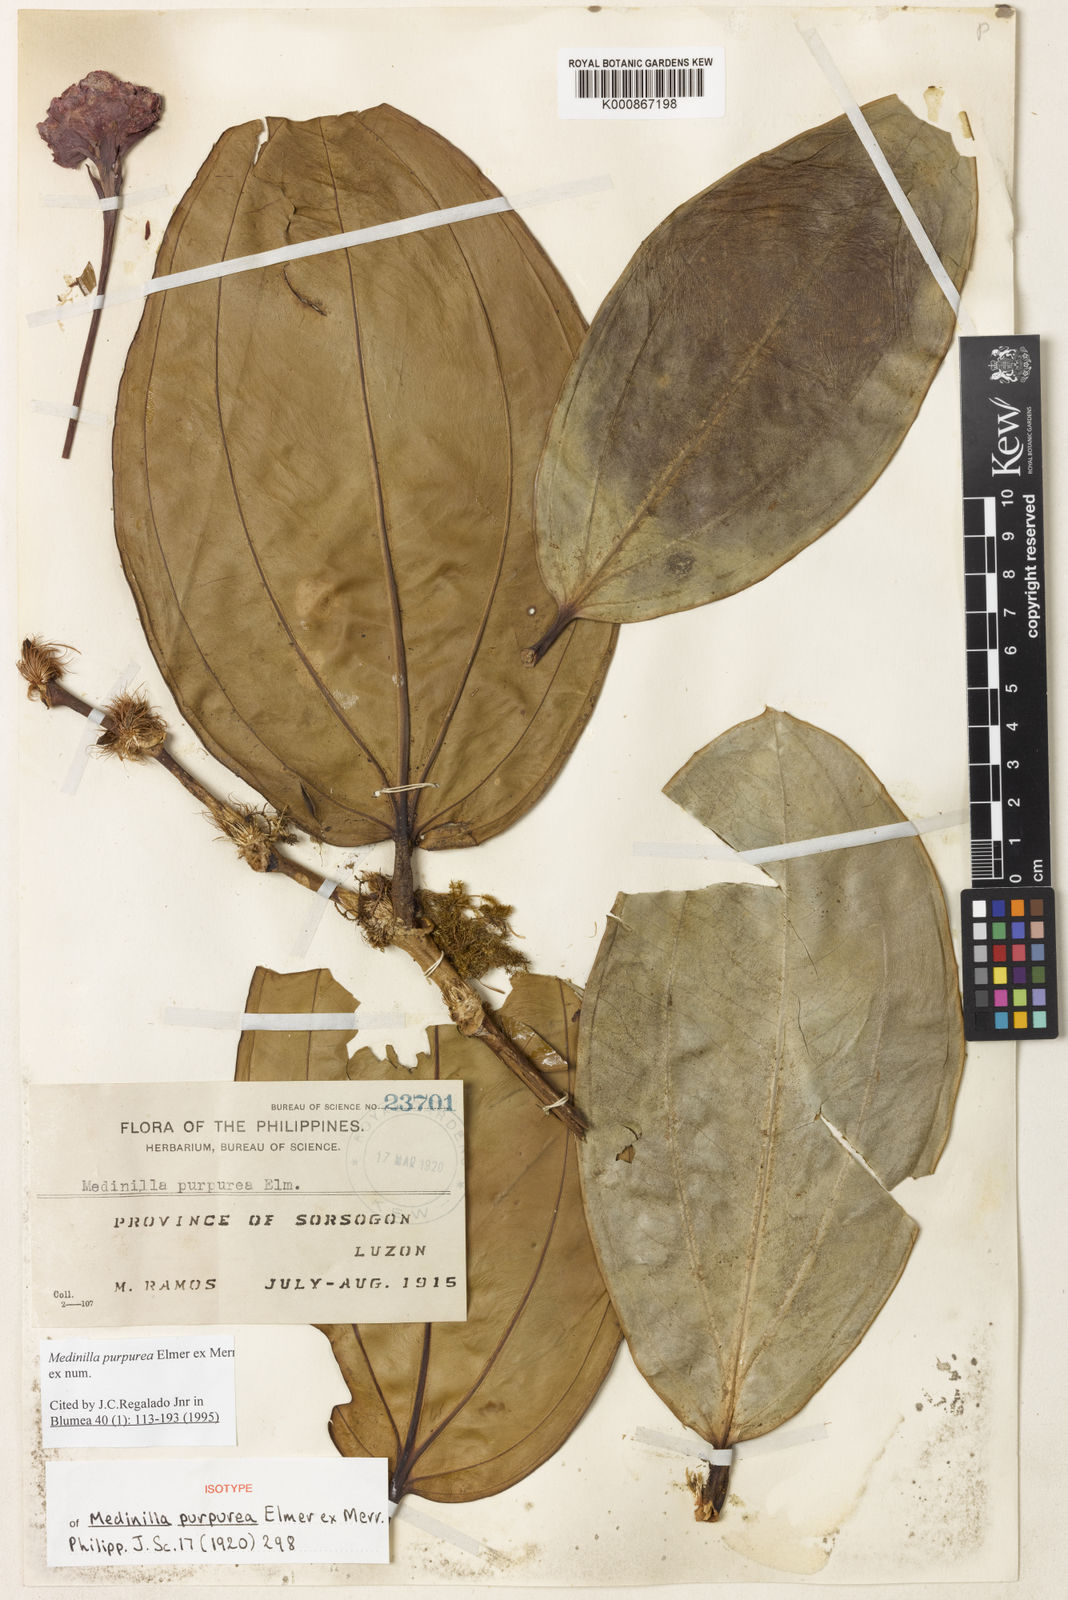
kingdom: Plantae
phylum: Tracheophyta
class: Magnoliopsida
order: Myrtales
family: Melastomataceae
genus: Medinilla
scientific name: Medinilla purpurea
